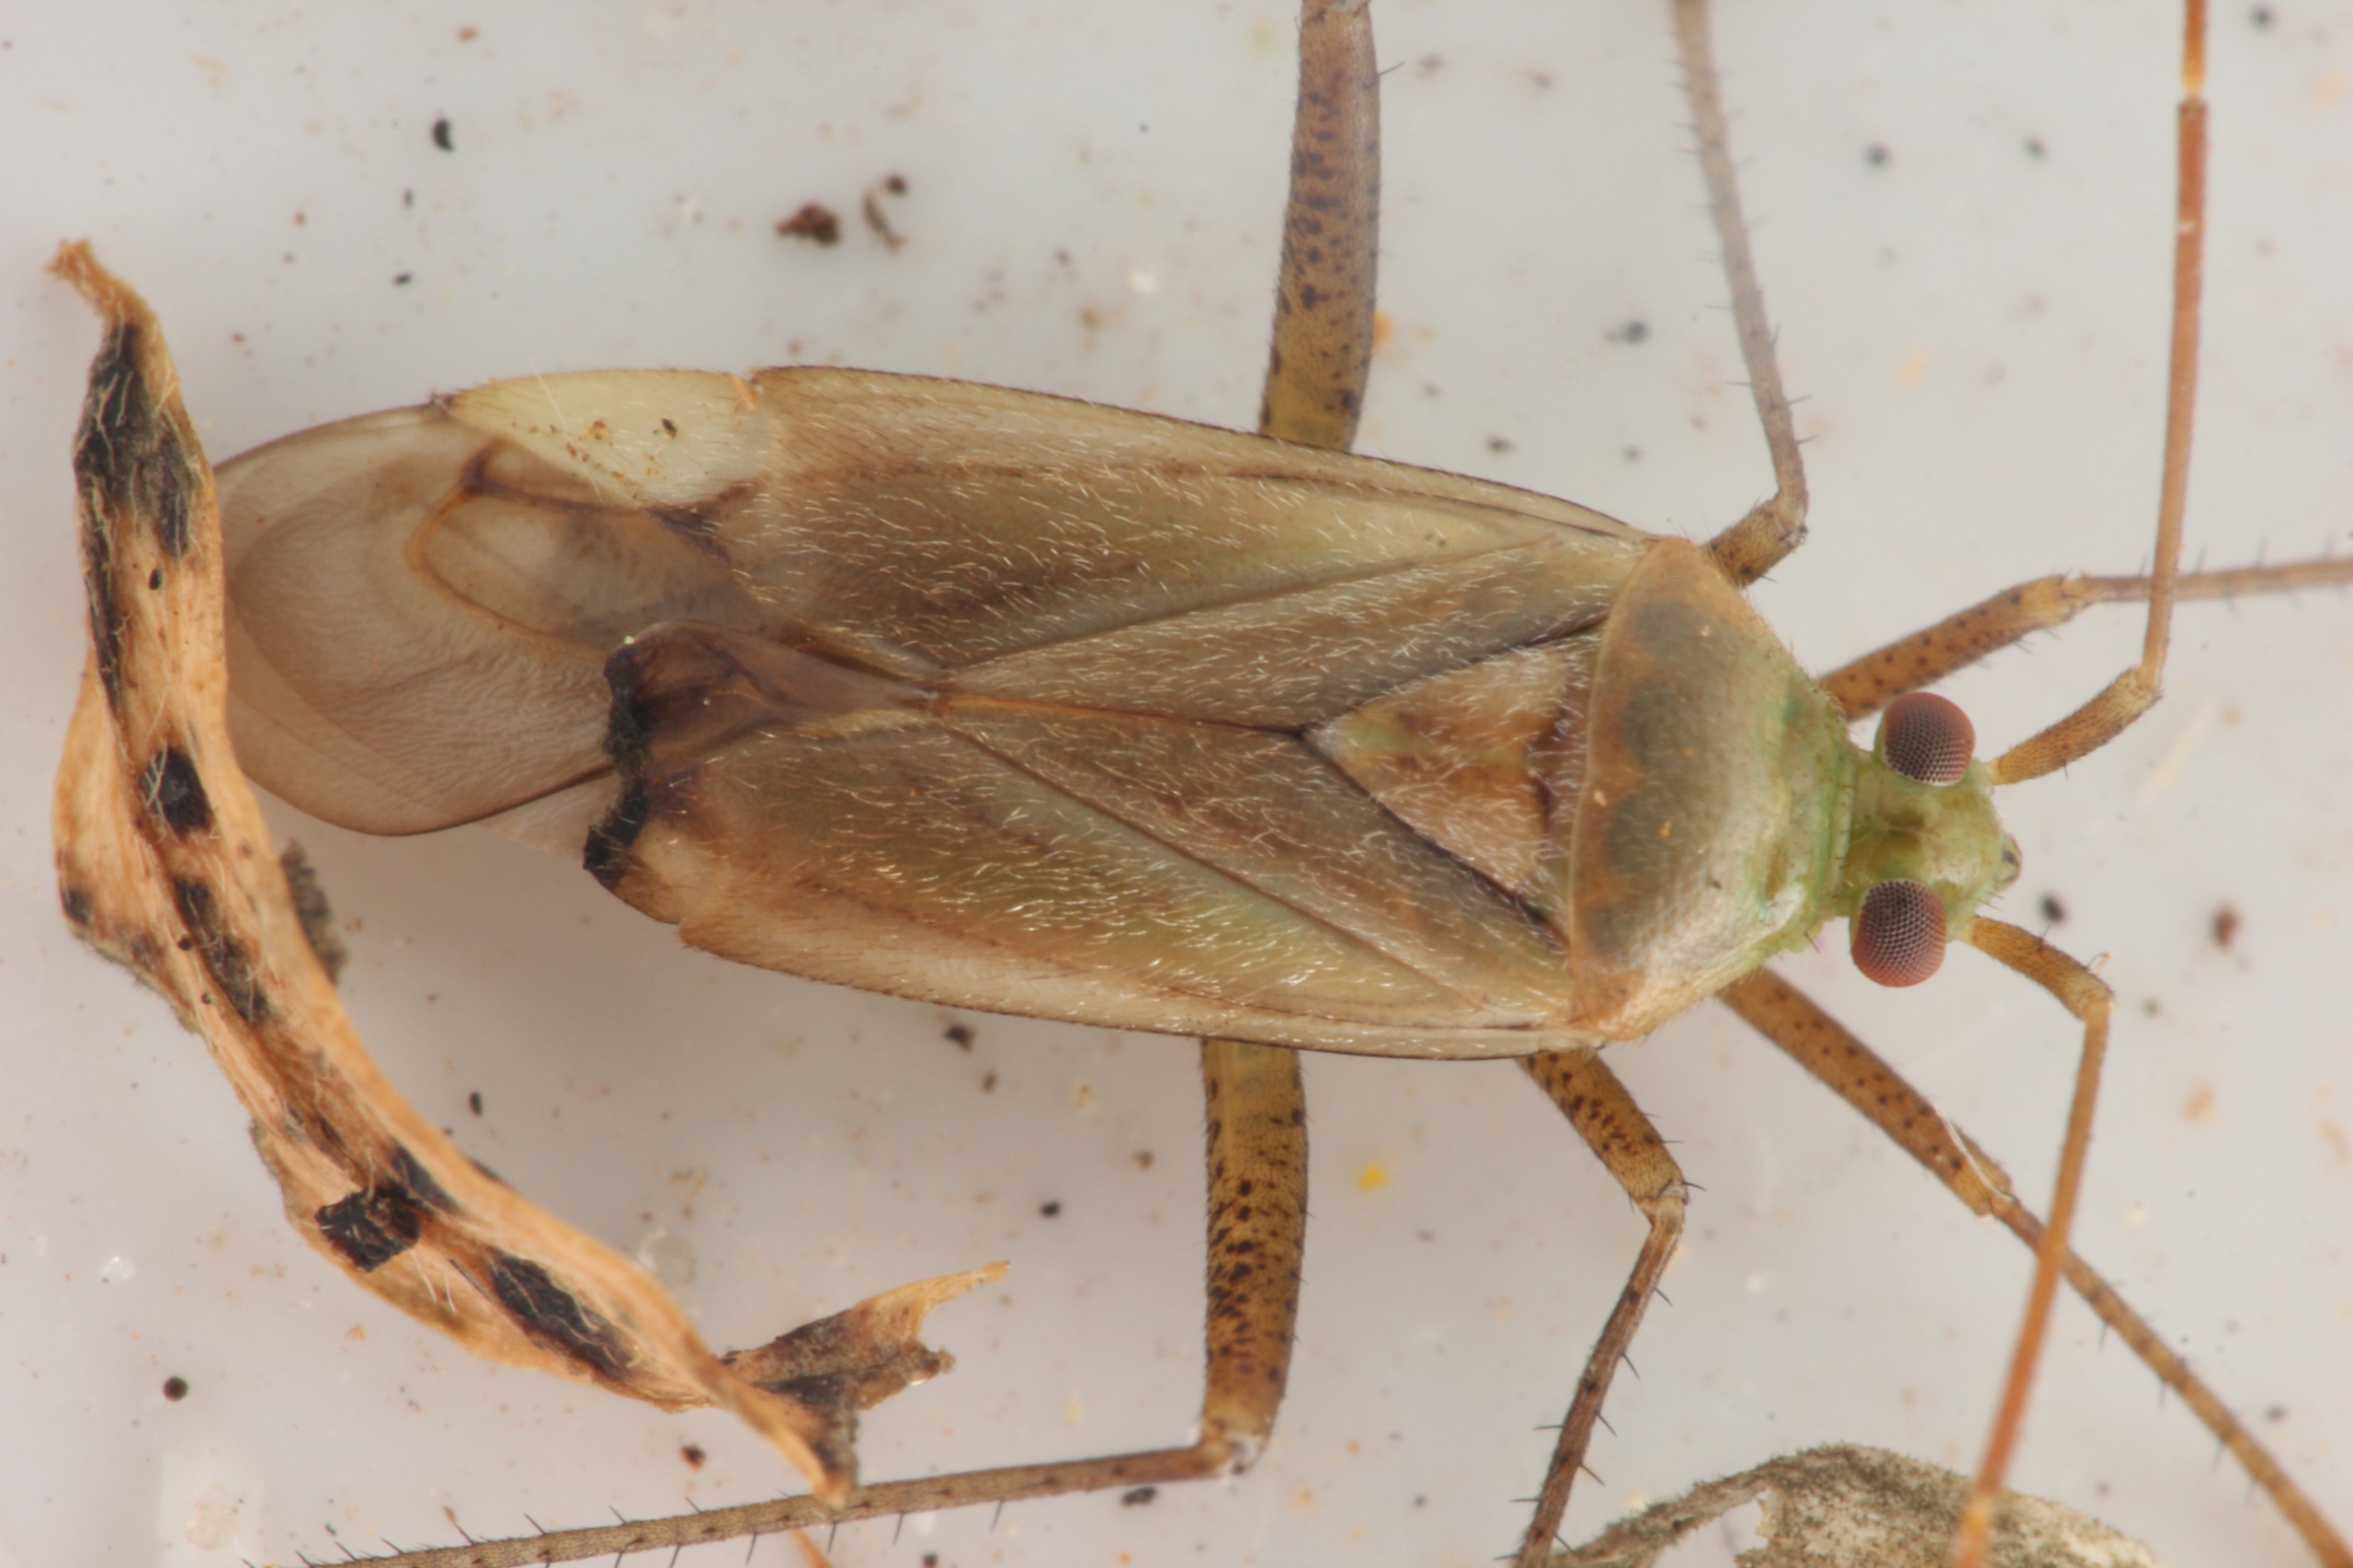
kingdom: Animalia
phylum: Arthropoda
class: Insecta
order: Hemiptera
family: Miridae
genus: Adelphocoris
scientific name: Adelphocoris lineolatus
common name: Lucernetæge
